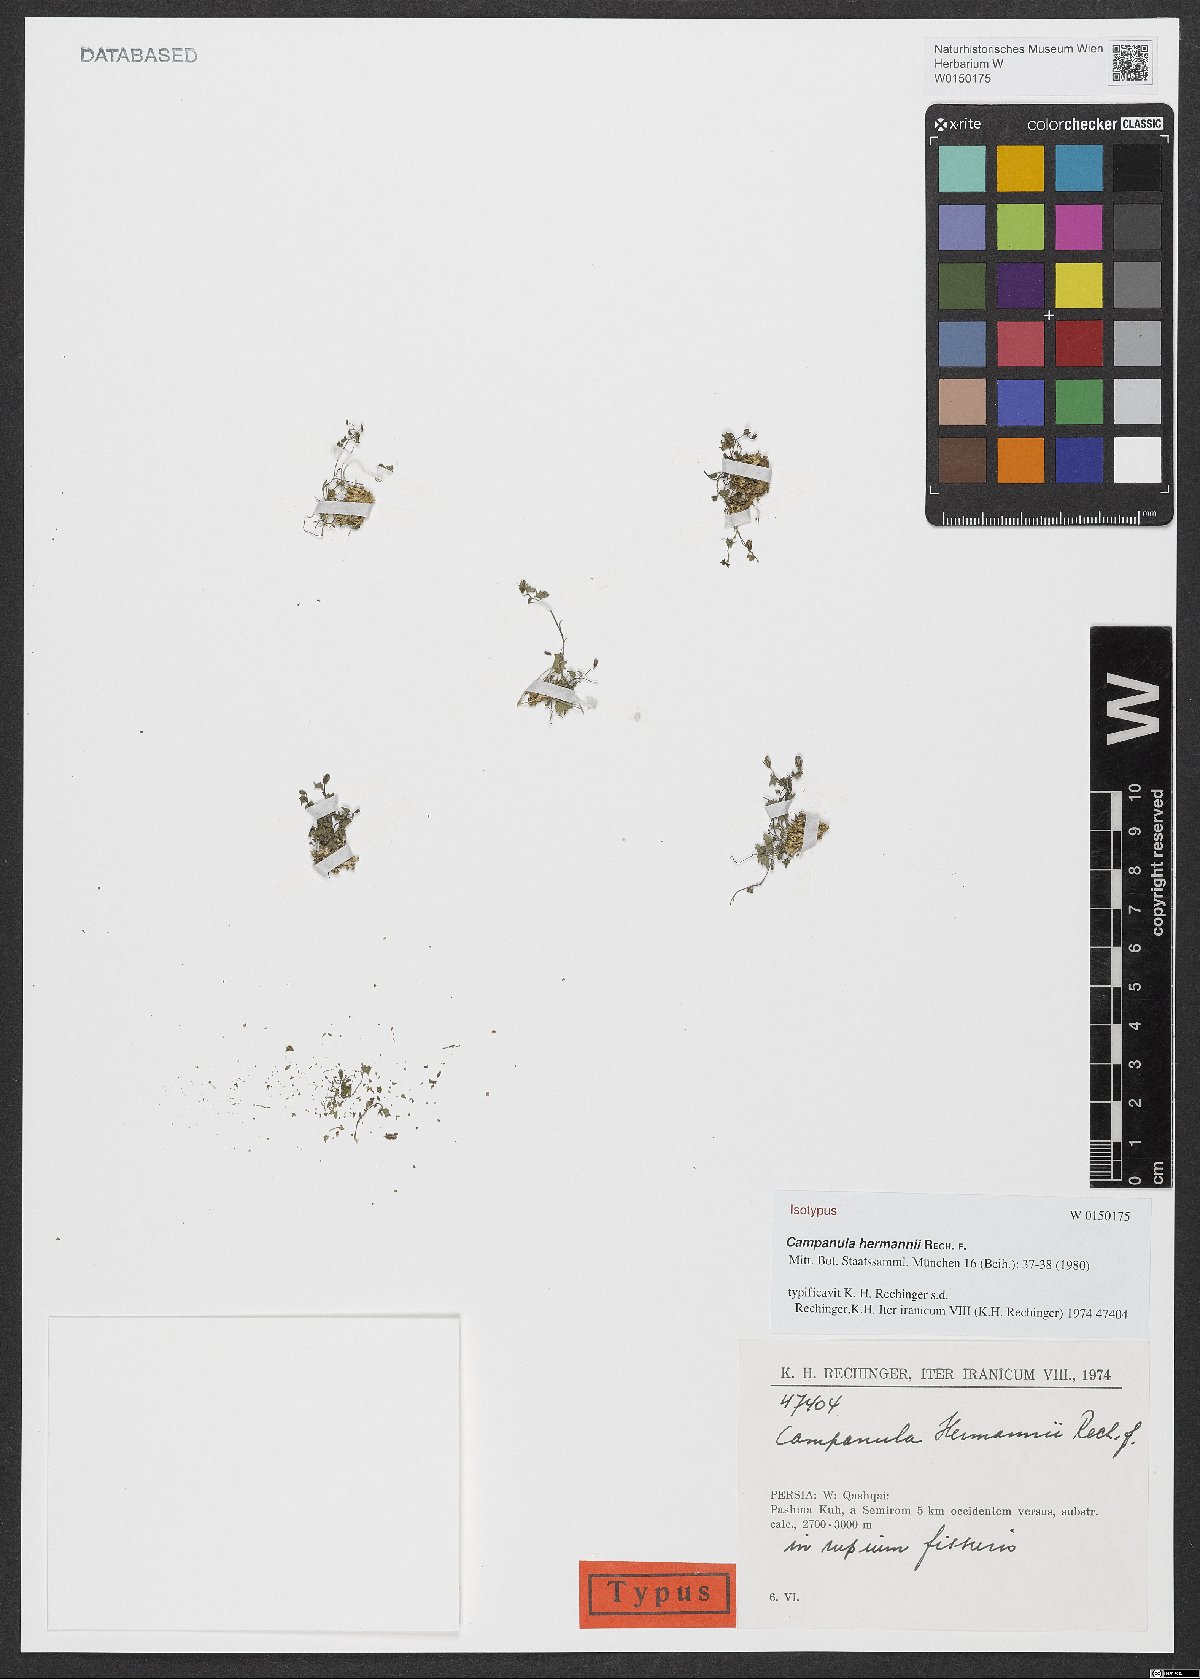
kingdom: Plantae
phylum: Tracheophyta
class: Magnoliopsida
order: Asterales
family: Campanulaceae
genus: Campanula
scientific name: Campanula hermannii
